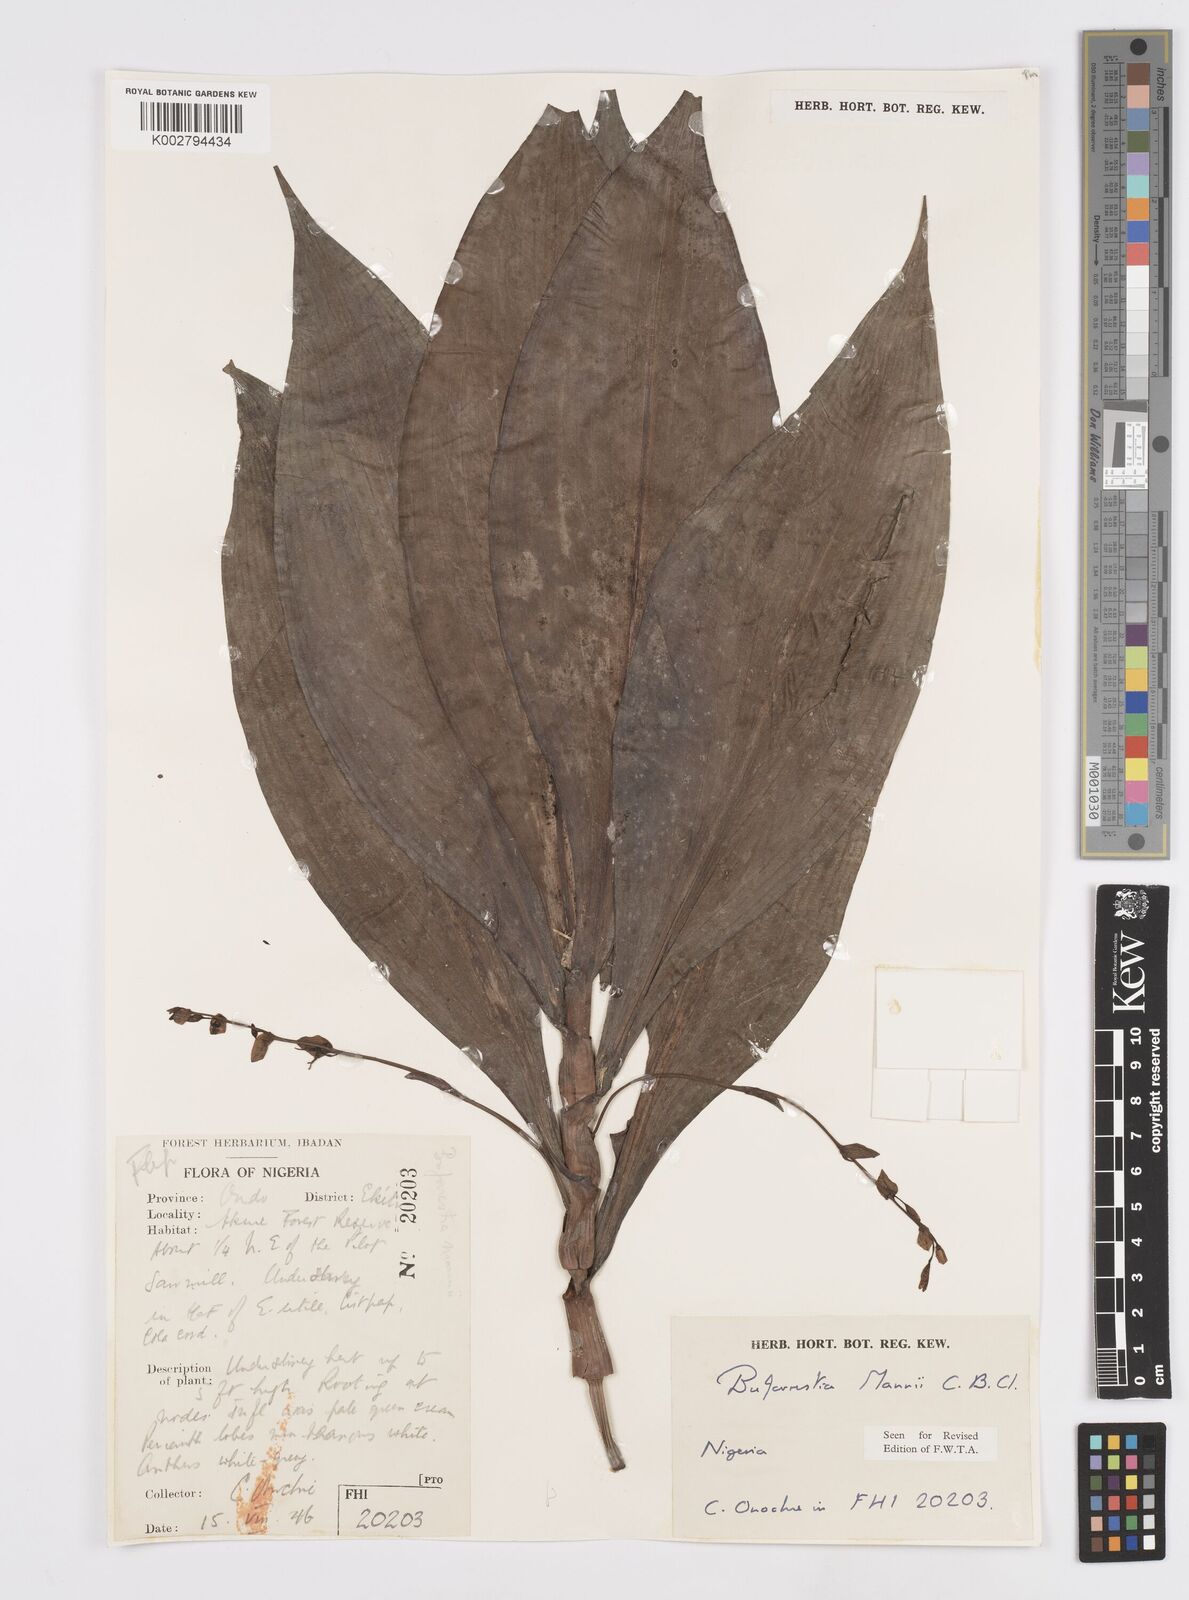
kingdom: Plantae
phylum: Tracheophyta
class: Liliopsida
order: Commelinales
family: Commelinaceae
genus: Buforrestia
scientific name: Buforrestia mannii
